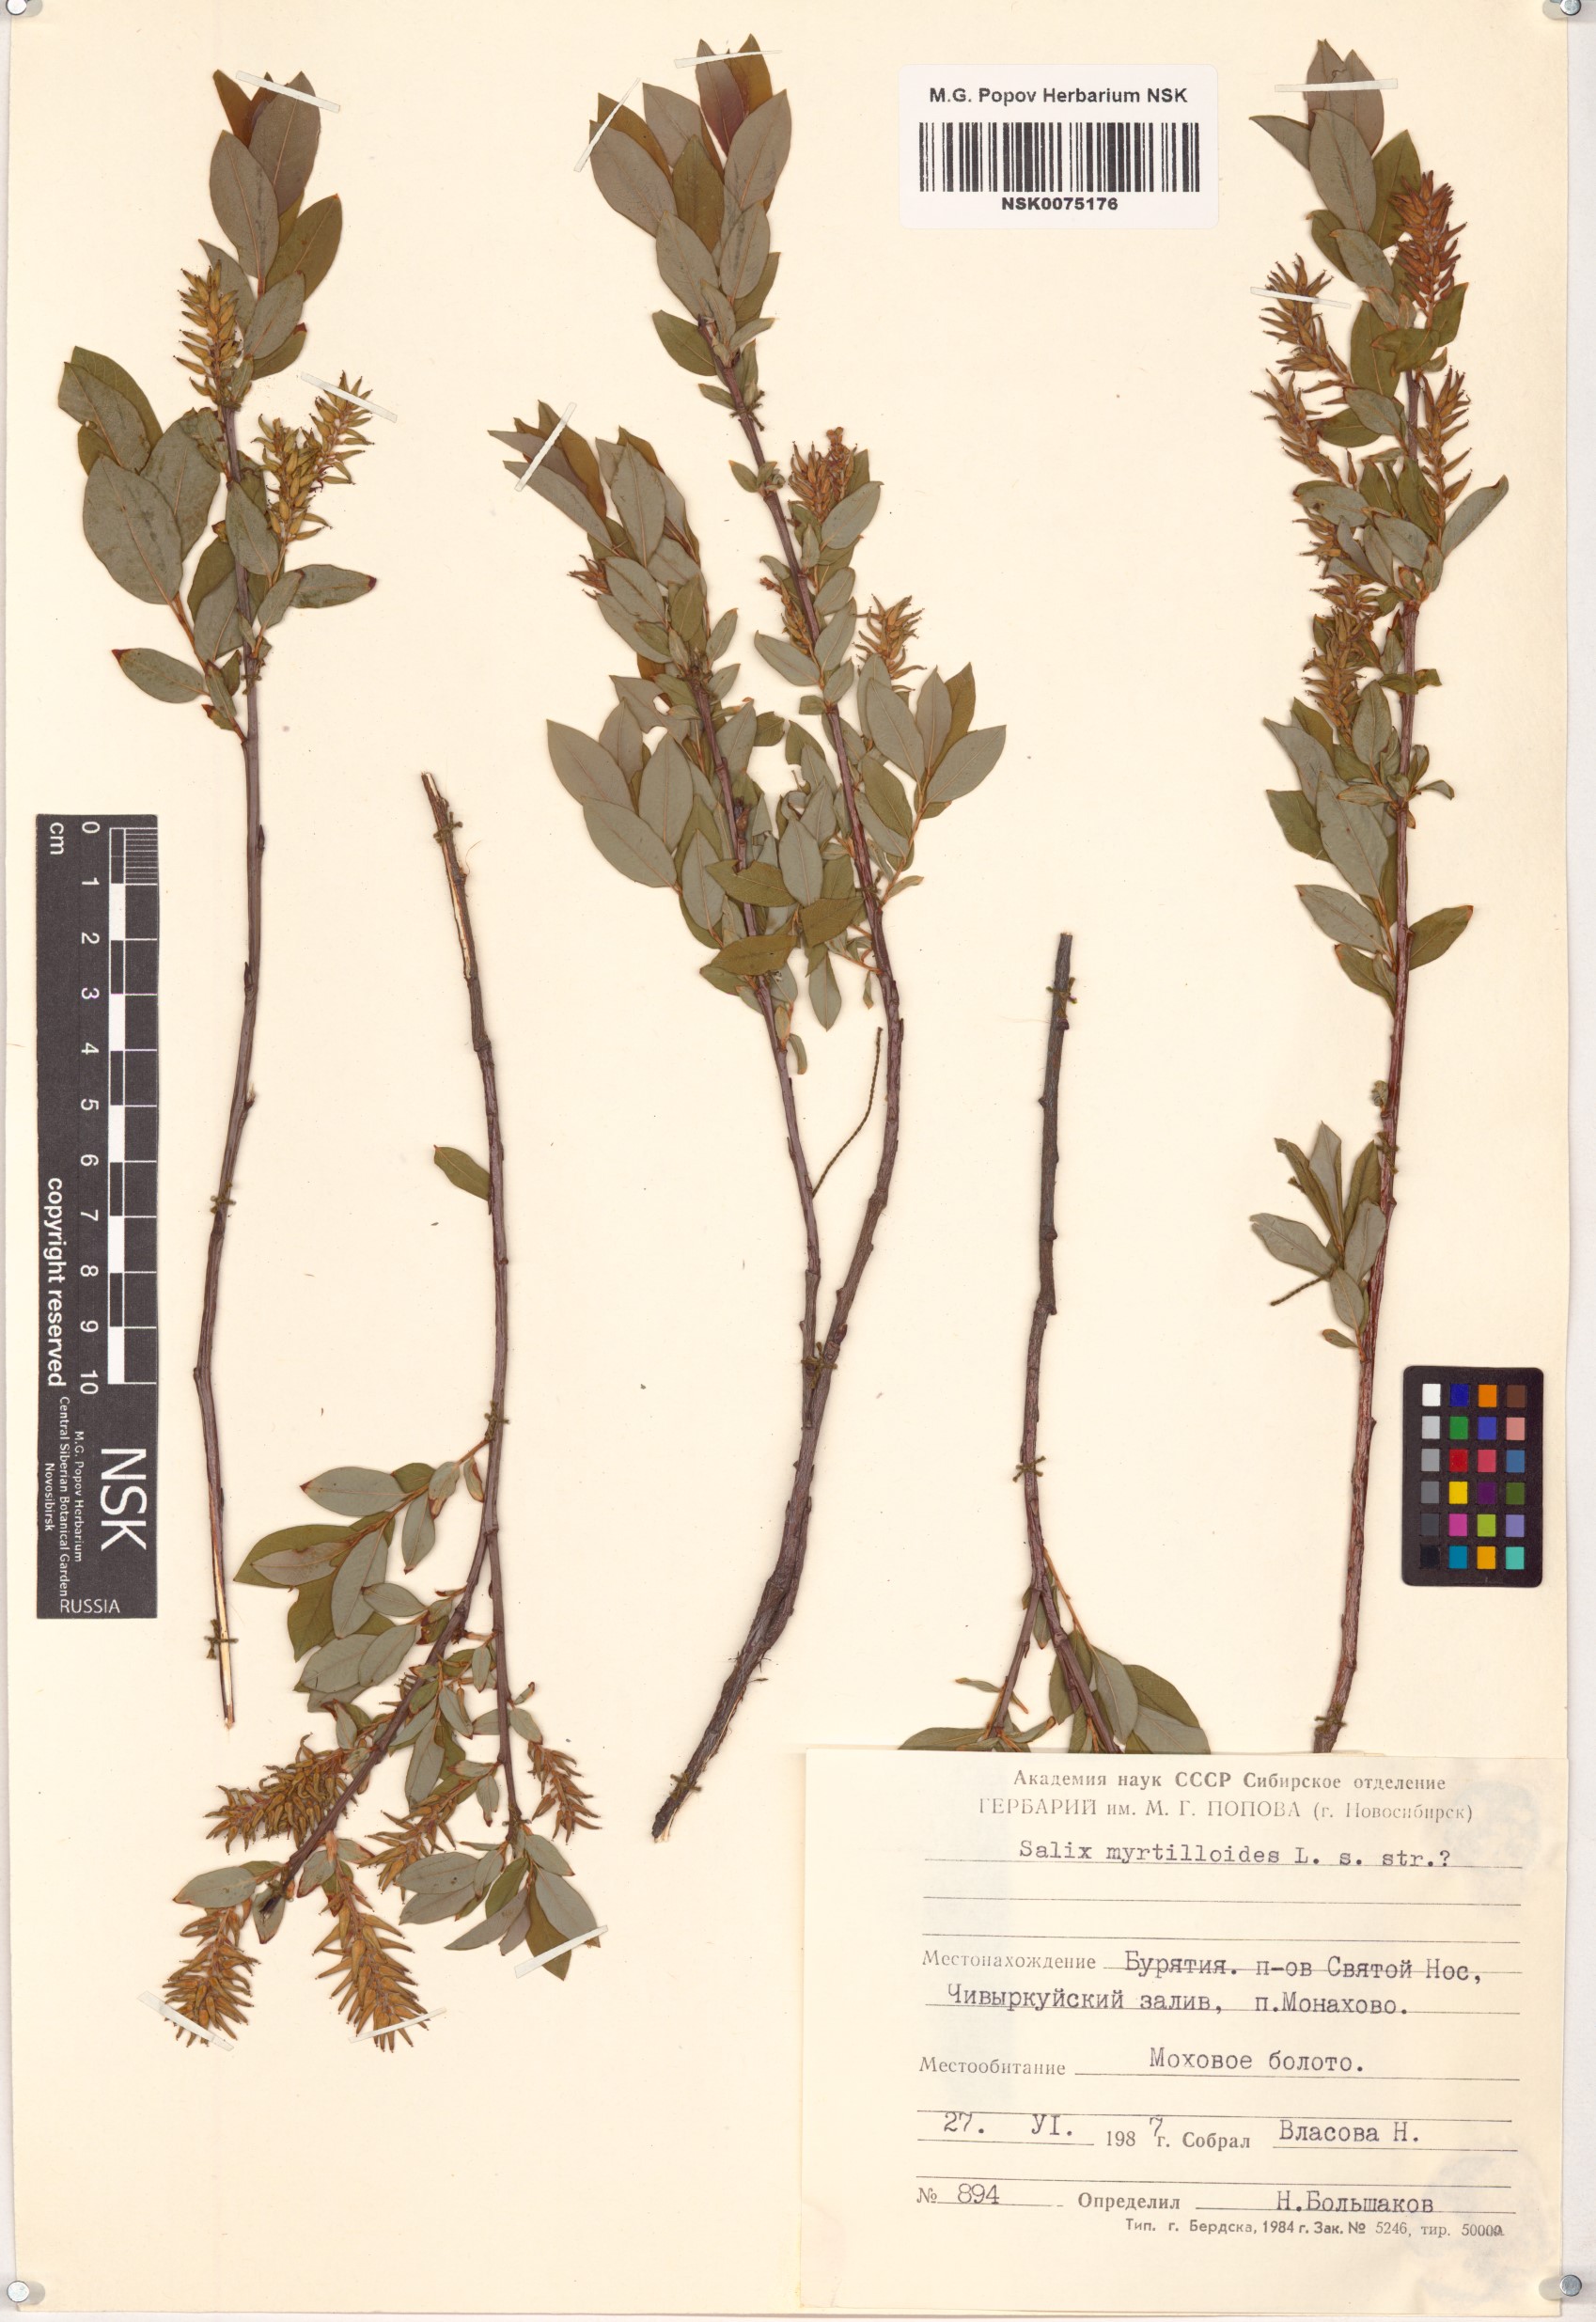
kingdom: Plantae
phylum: Tracheophyta
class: Magnoliopsida
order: Malpighiales
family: Salicaceae
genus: Salix
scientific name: Salix myrtilloides
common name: Myrtle-leaved willow
